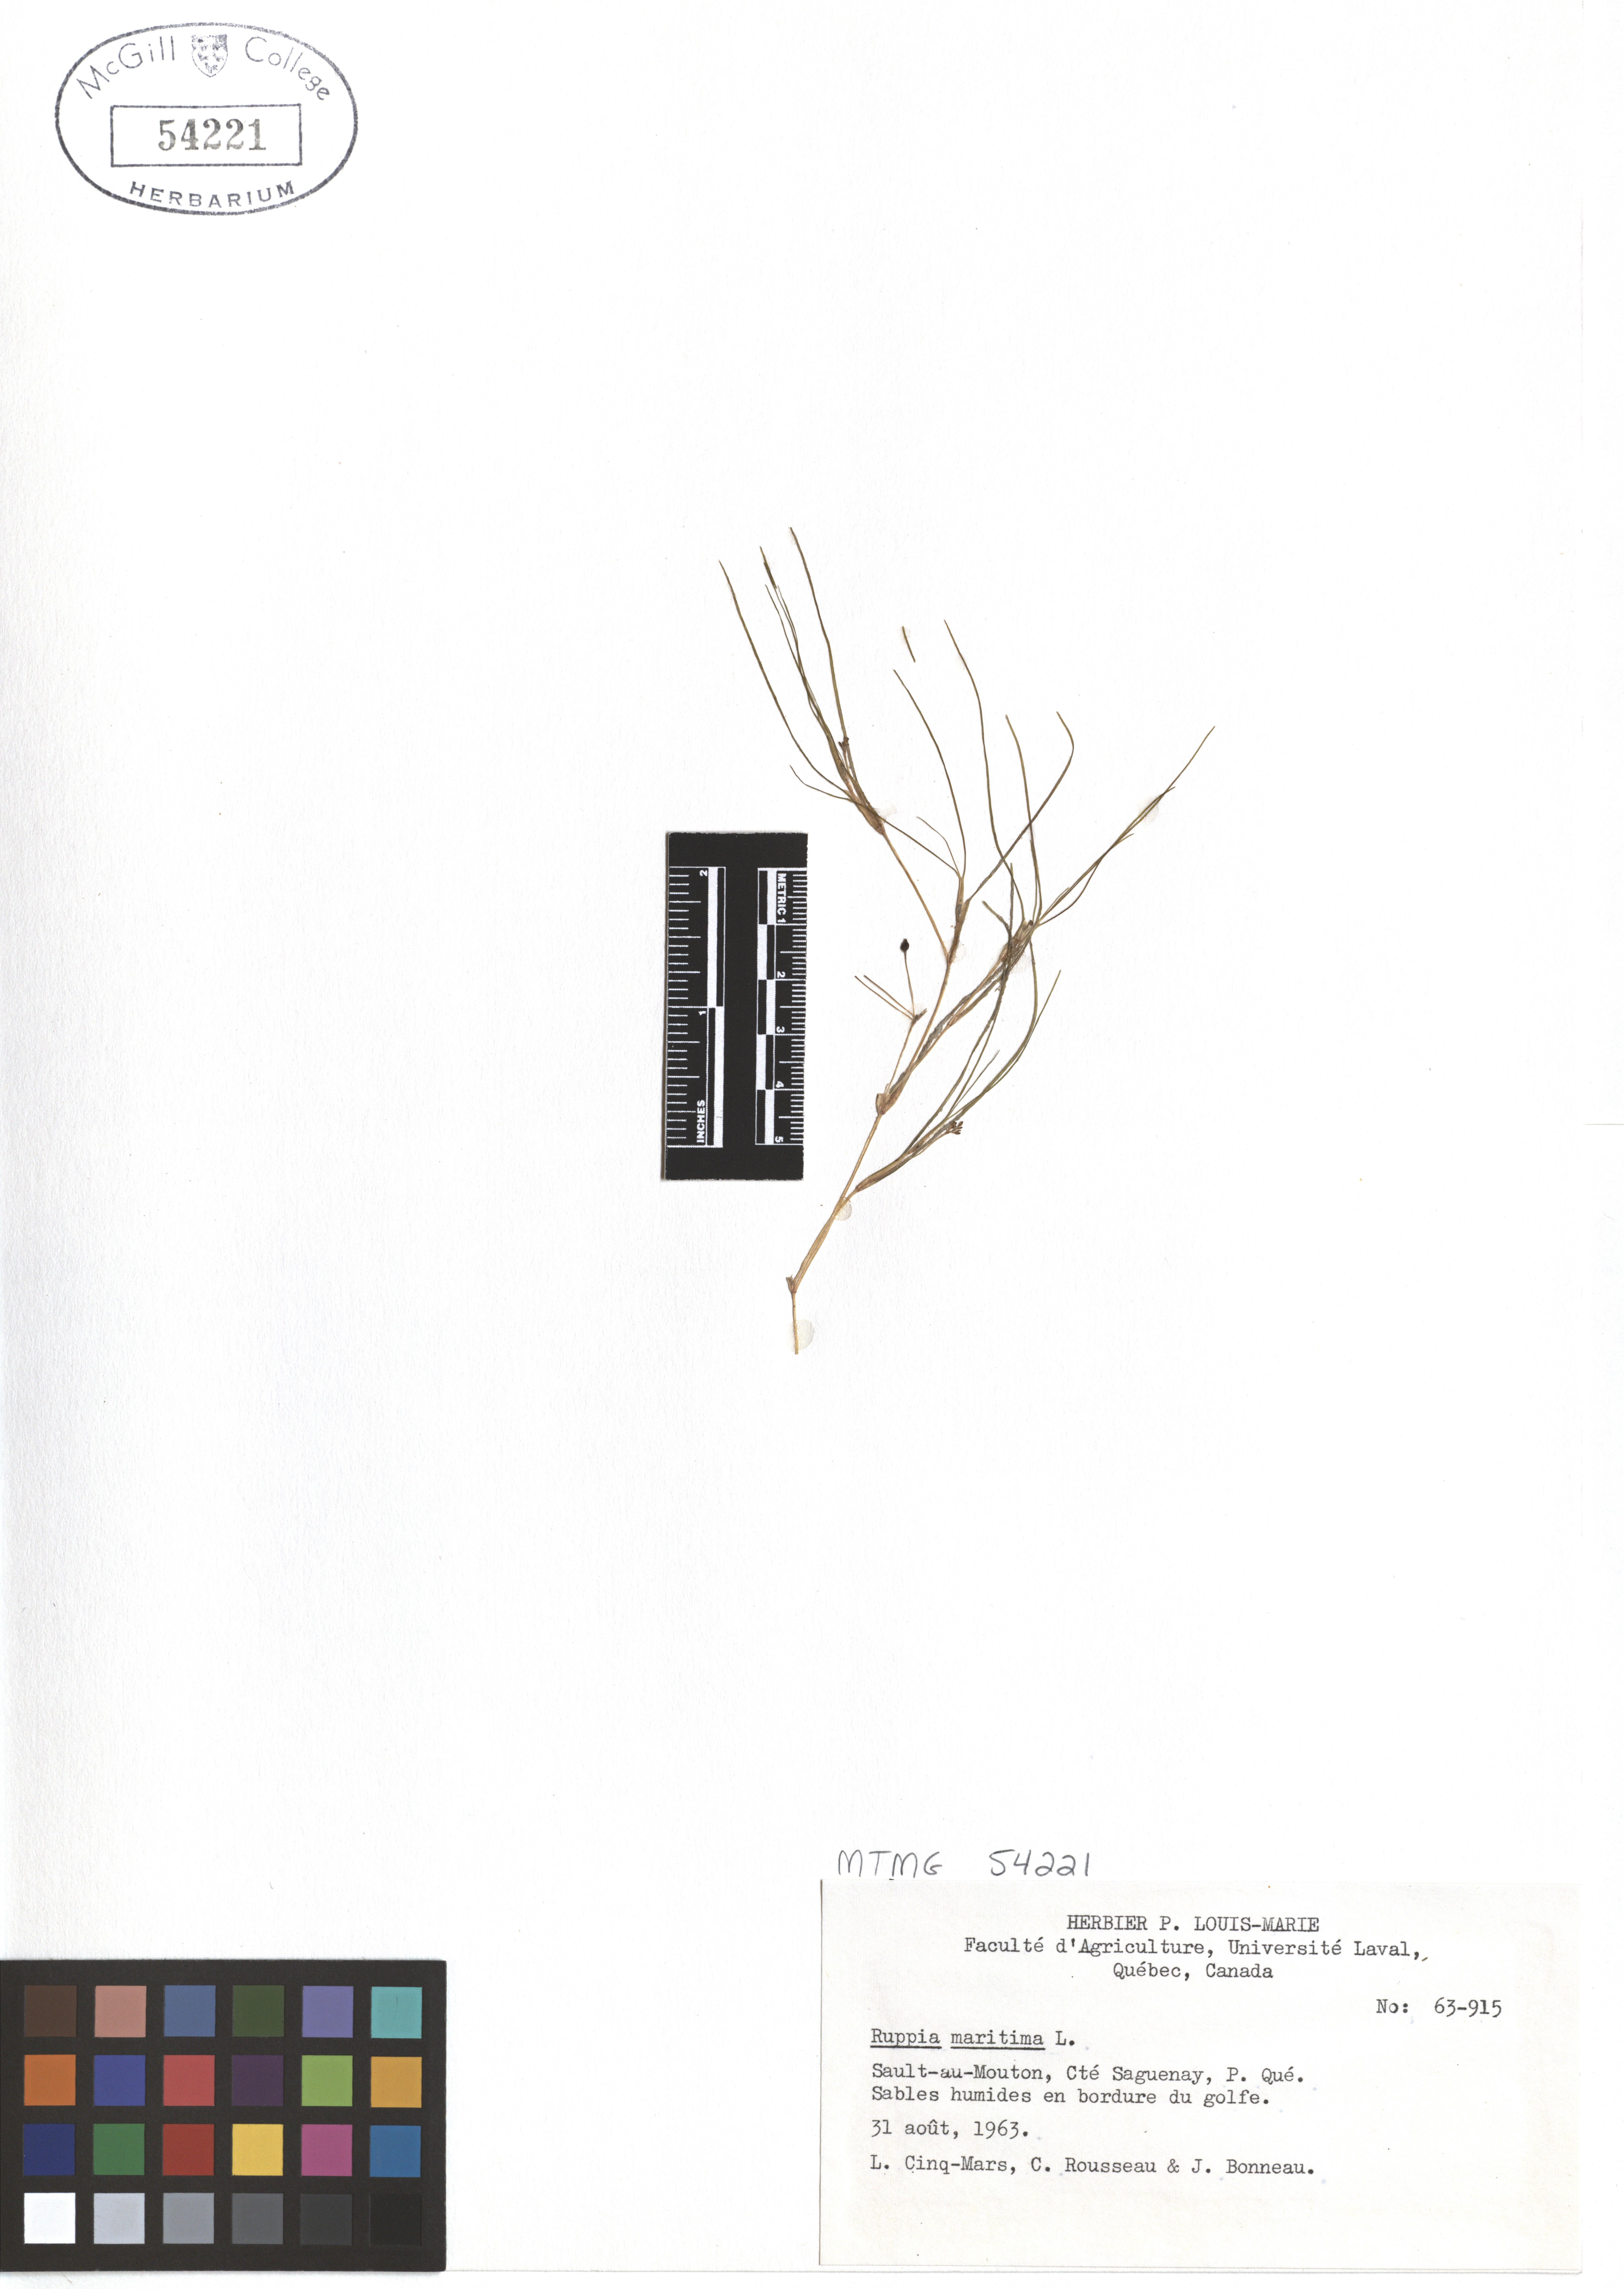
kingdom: Plantae
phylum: Tracheophyta
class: Liliopsida
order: Alismatales
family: Ruppiaceae
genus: Ruppia
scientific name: Ruppia maritima
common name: Beaked tasselweed
